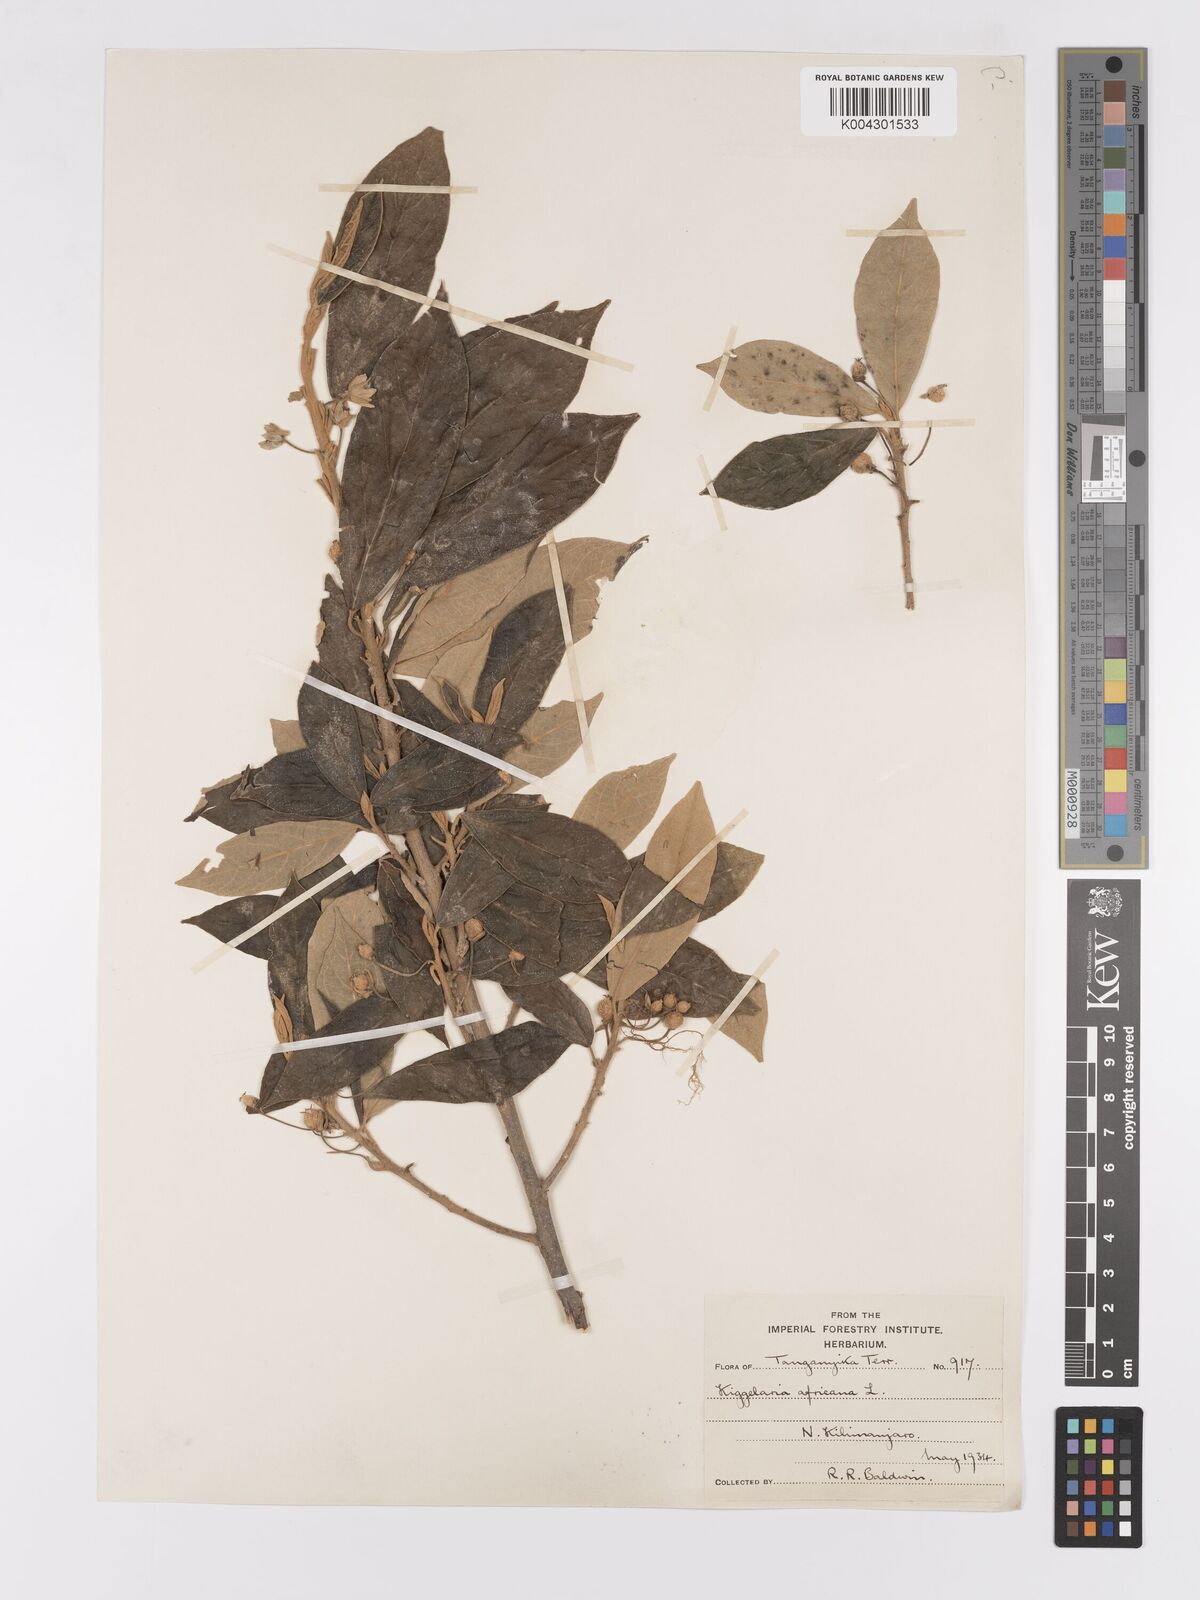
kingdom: Plantae
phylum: Tracheophyta
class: Magnoliopsida
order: Malpighiales
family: Achariaceae
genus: Kiggelaria
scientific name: Kiggelaria africana
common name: Wild peach
